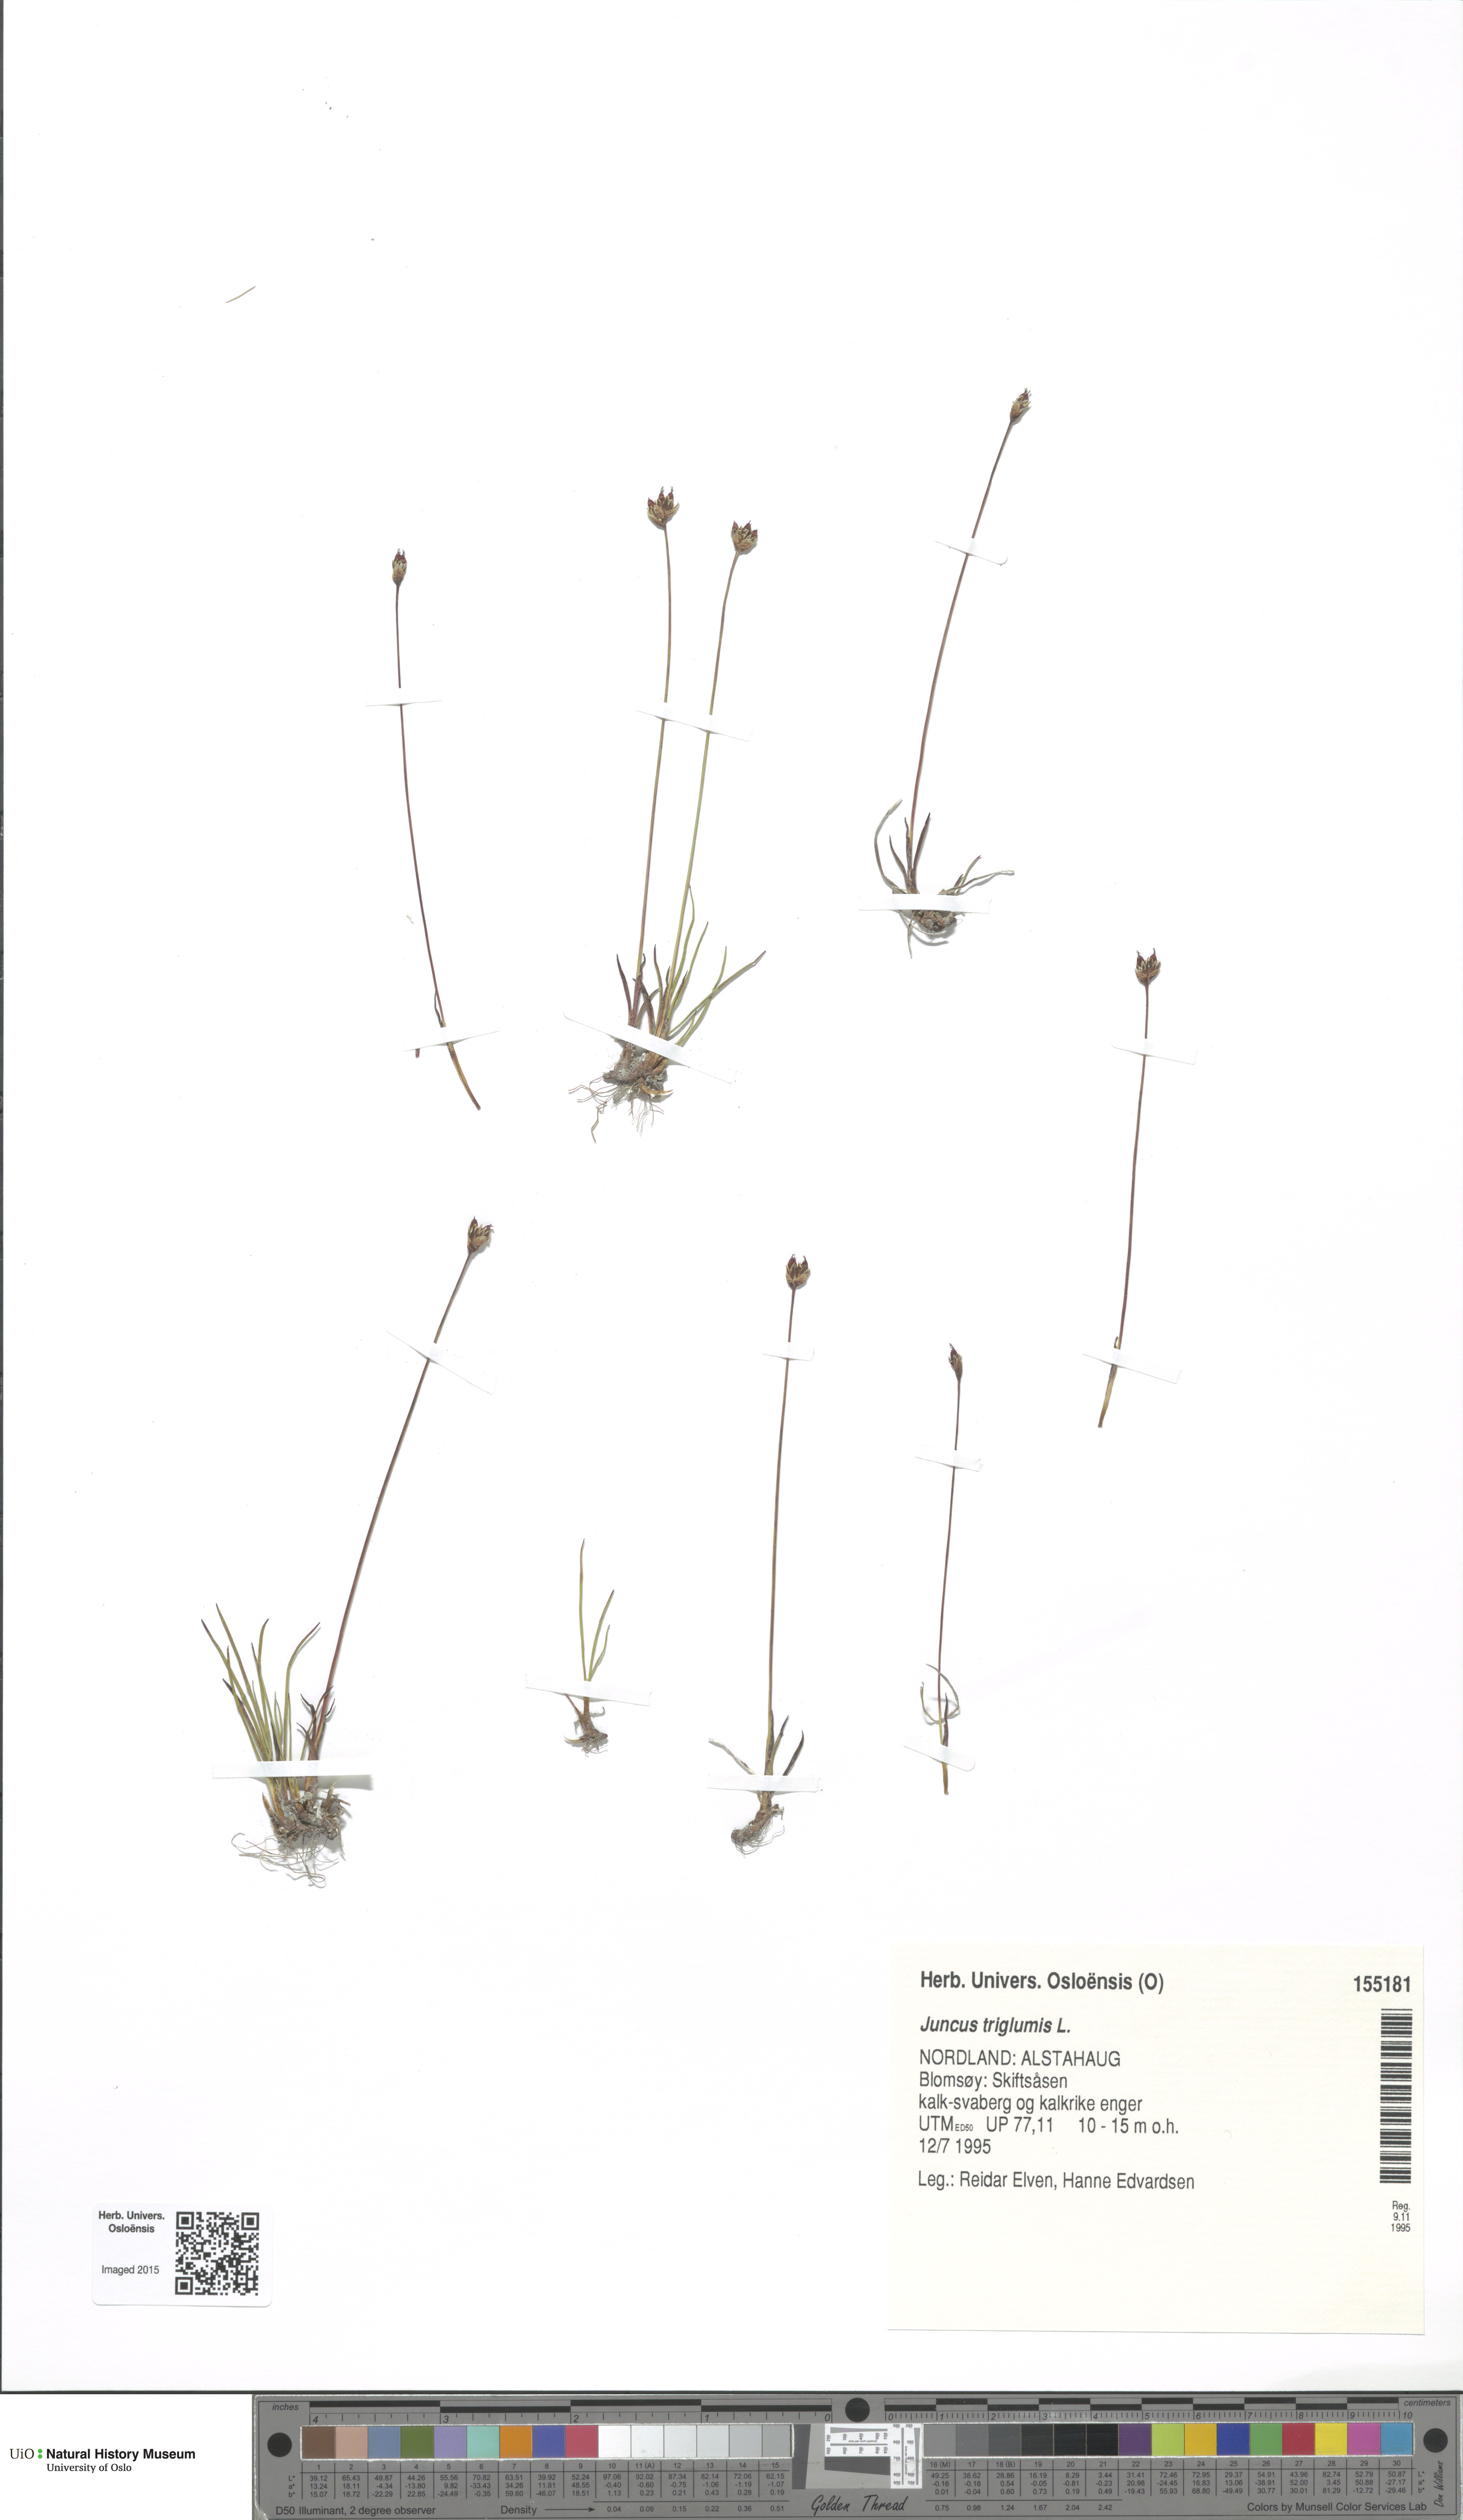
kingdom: Plantae
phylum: Tracheophyta
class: Liliopsida
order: Poales
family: Juncaceae
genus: Juncus
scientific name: Juncus triglumis
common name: Three-flowered rush
